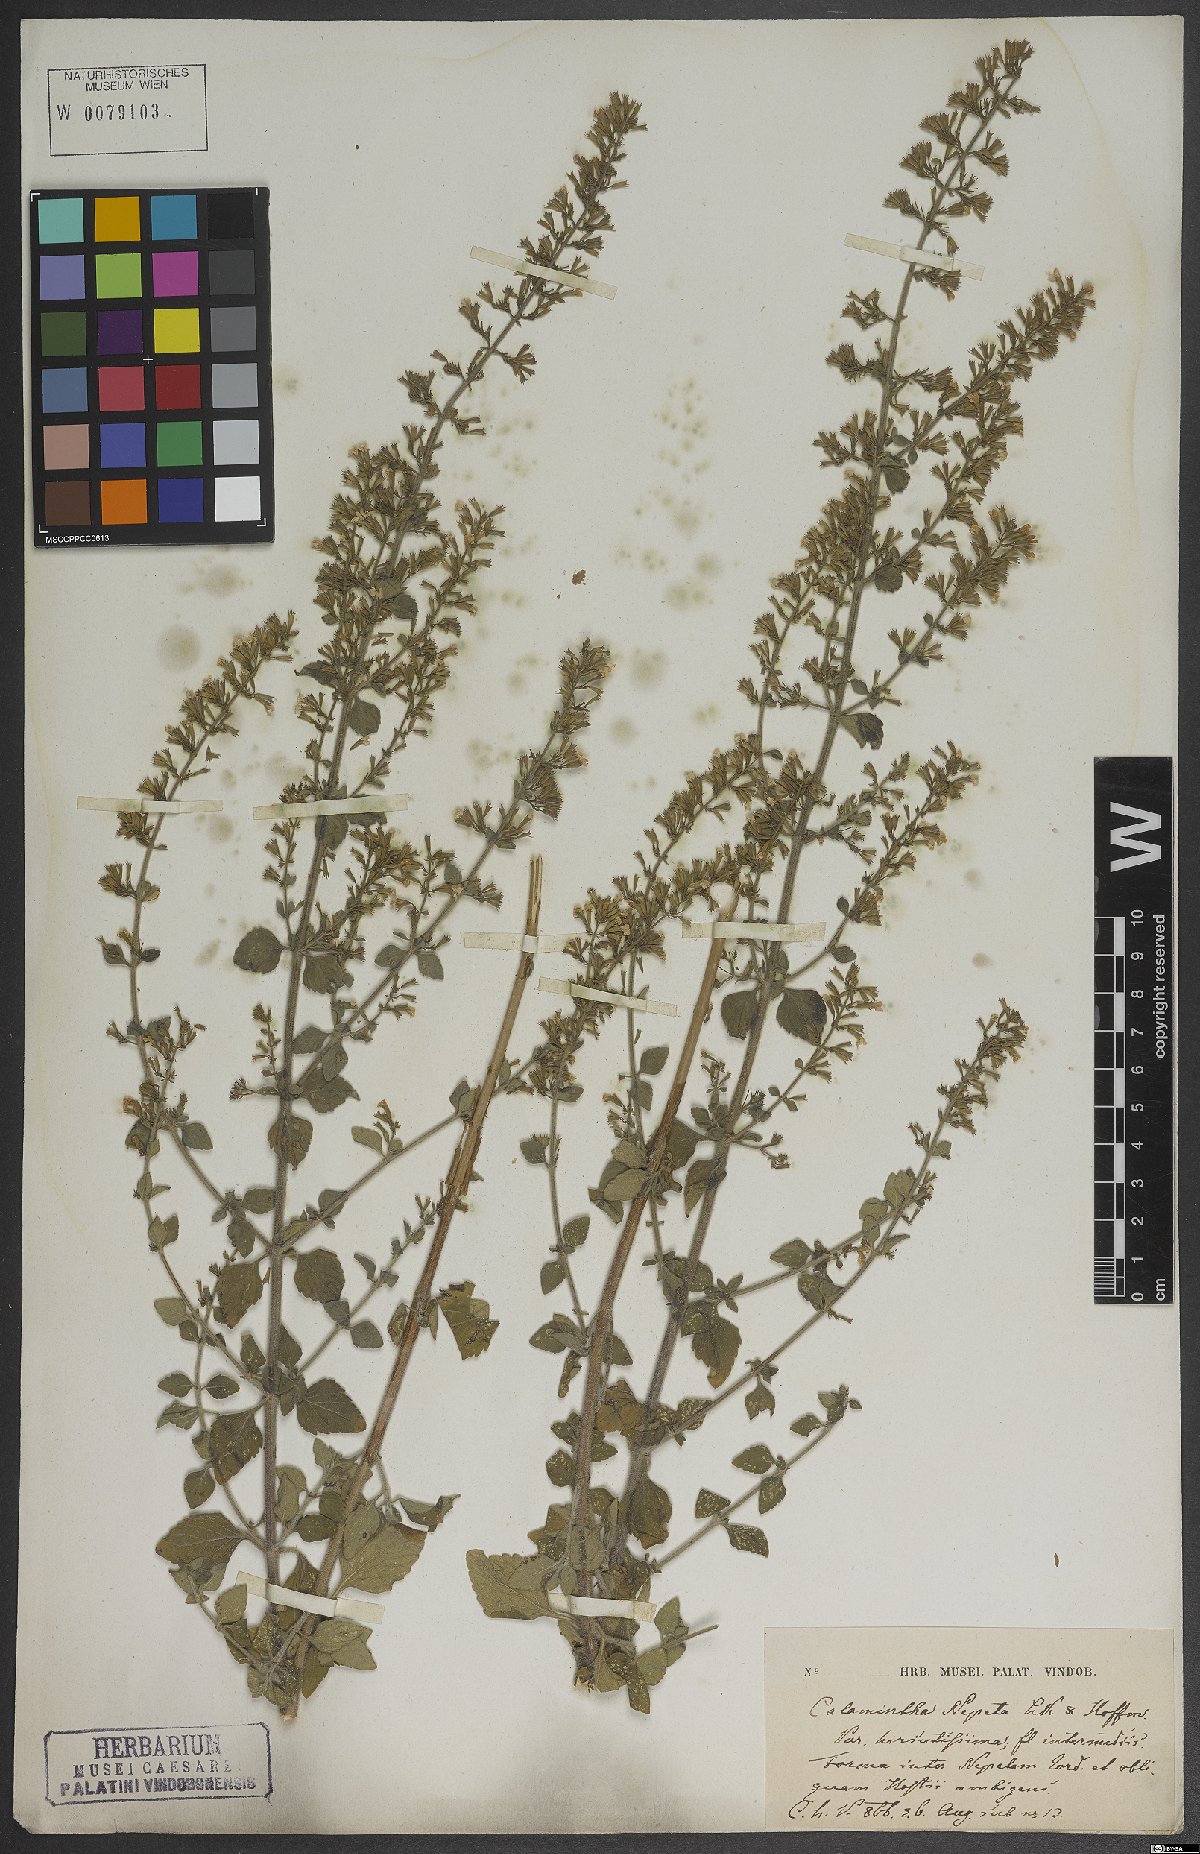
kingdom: Plantae
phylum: Tracheophyta
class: Magnoliopsida
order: Lamiales
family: Lamiaceae
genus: Clinopodium
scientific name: Clinopodium nepeta
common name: Lesser calamint
